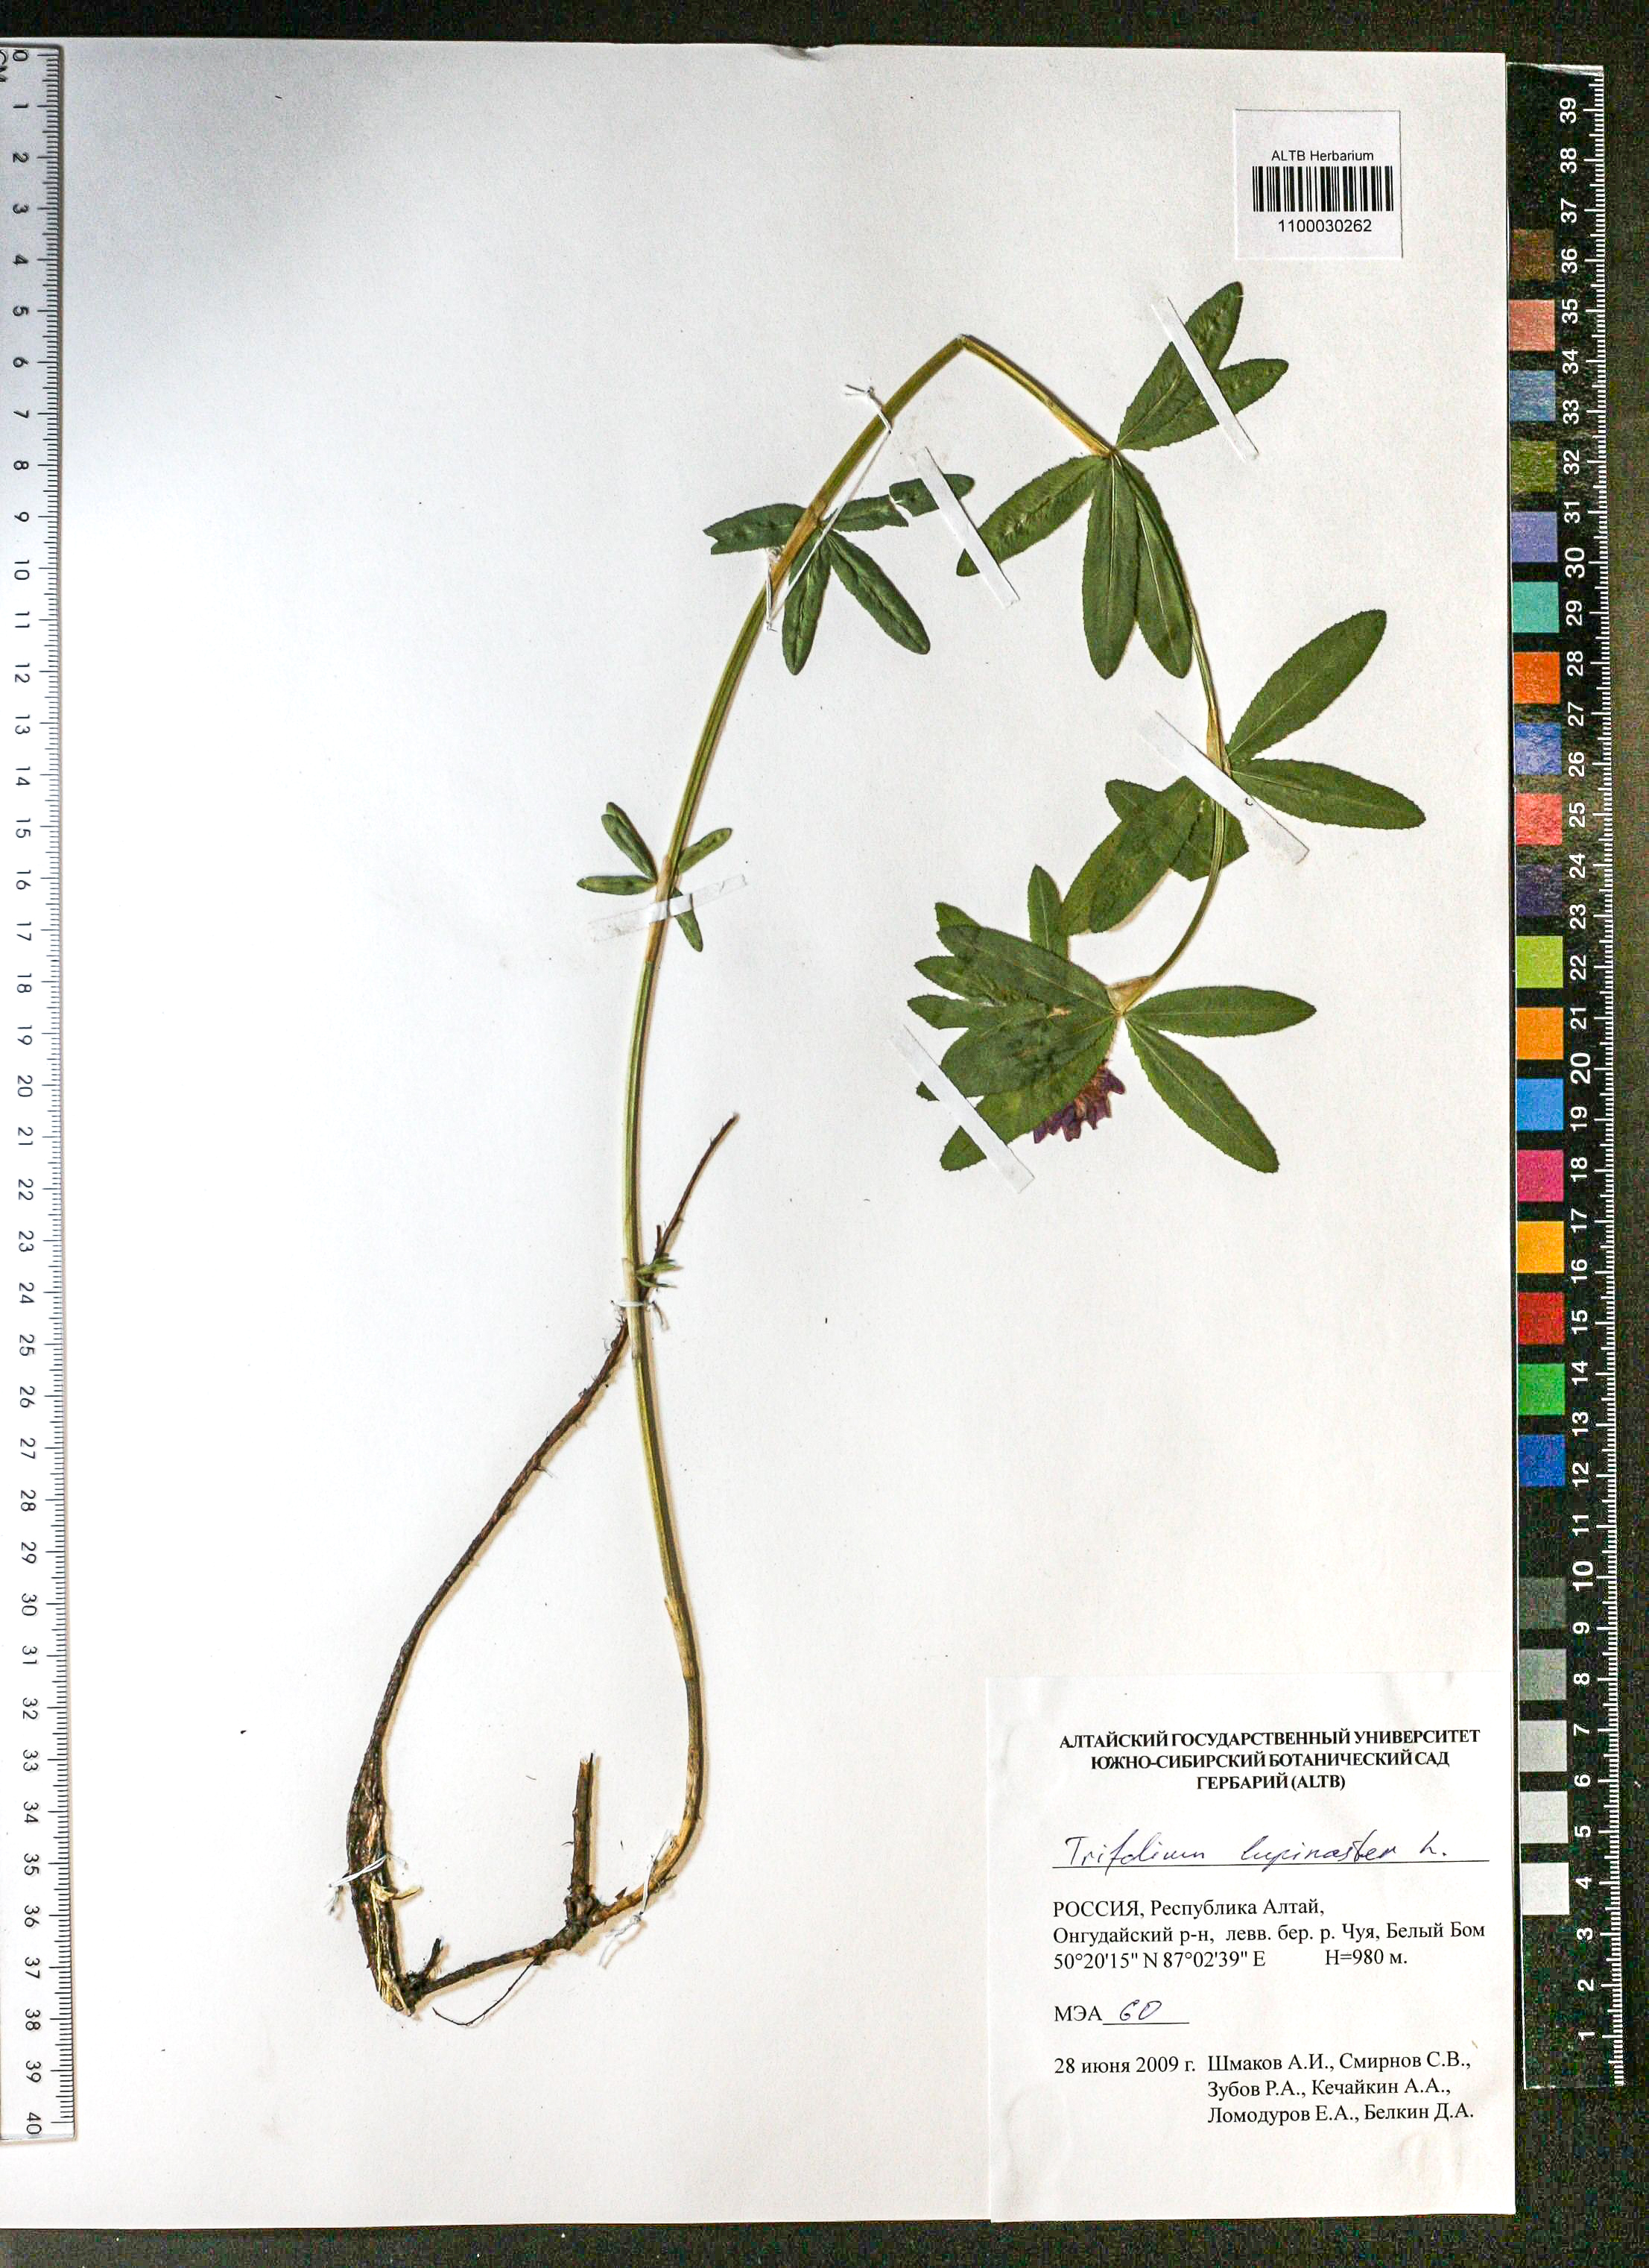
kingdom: Plantae
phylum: Tracheophyta
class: Magnoliopsida
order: Fabales
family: Fabaceae
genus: Trifolium
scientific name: Trifolium lupinaster
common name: Lupine clover
